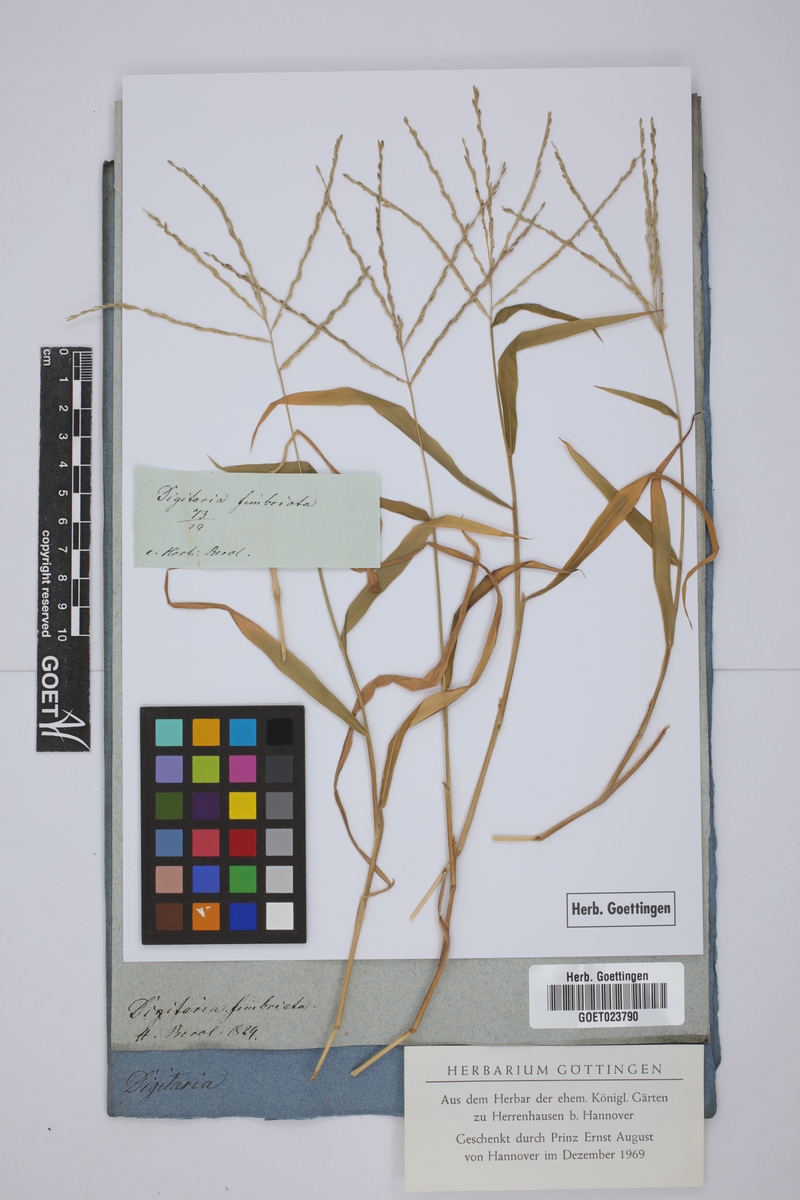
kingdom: Plantae
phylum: Tracheophyta
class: Liliopsida
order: Poales
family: Poaceae
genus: Digitaria
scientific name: Digitaria ciliaris
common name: Tropical finger-grass
